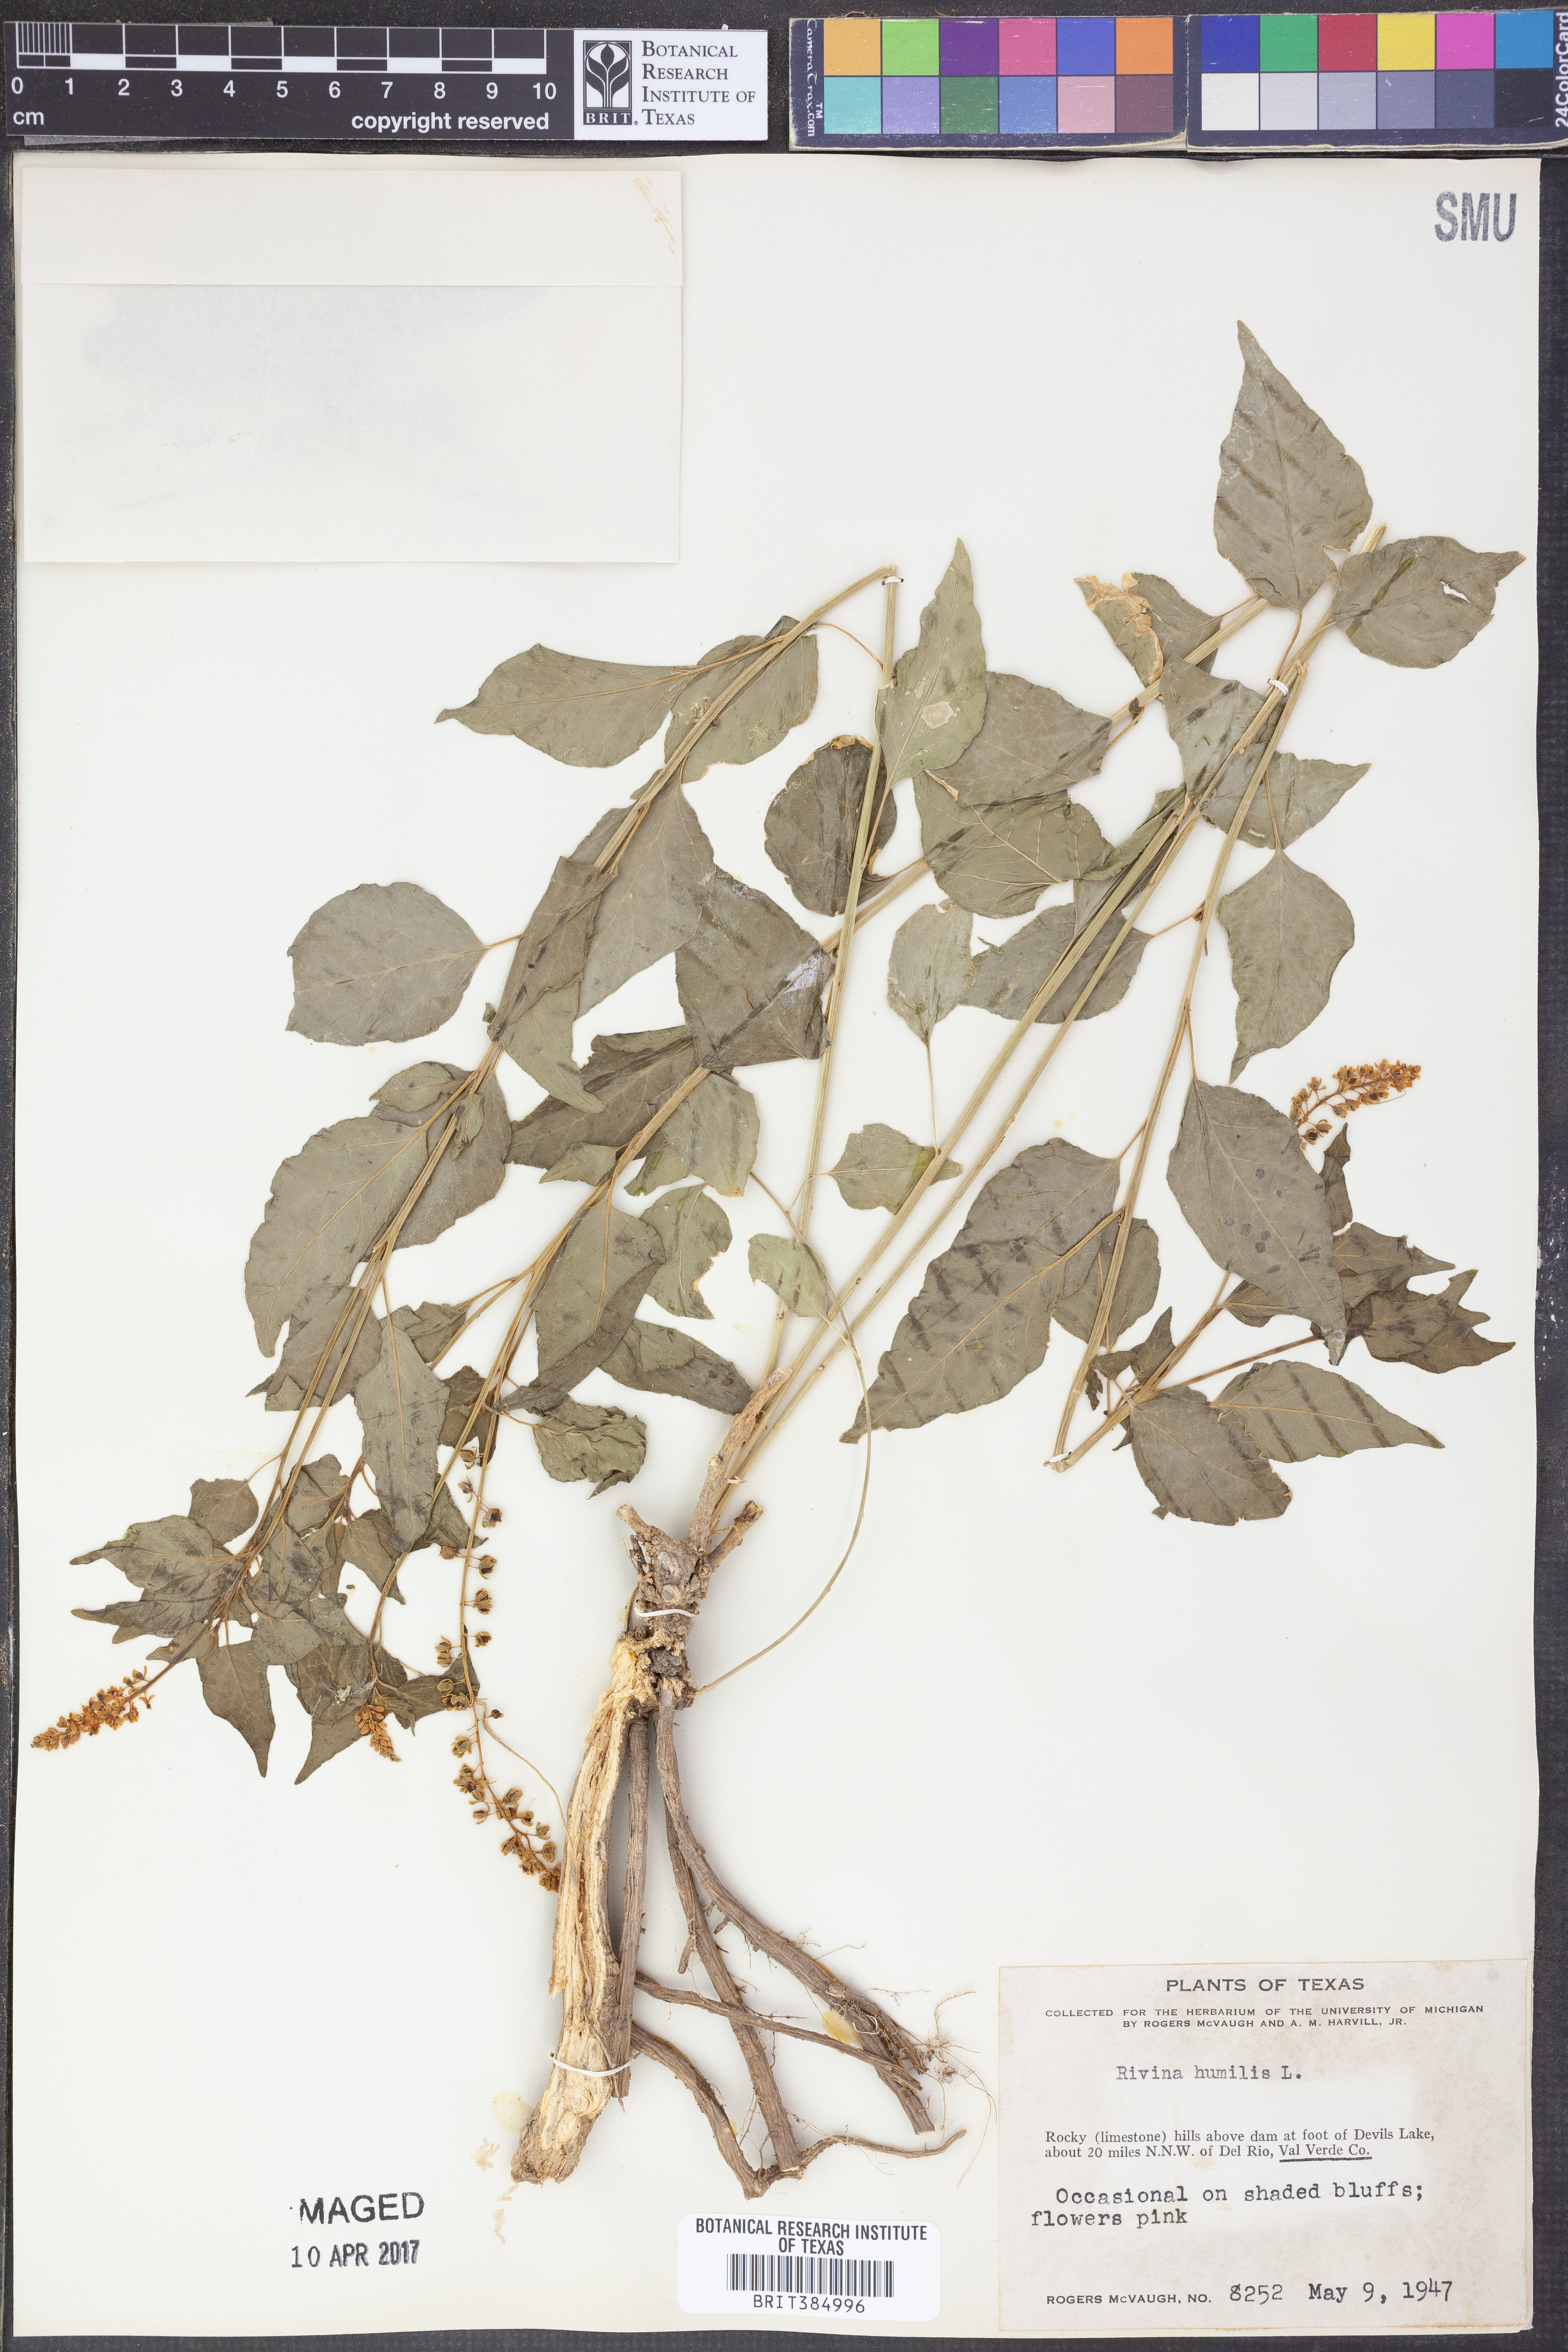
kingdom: Plantae
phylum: Tracheophyta
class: Magnoliopsida
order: Caryophyllales
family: Phytolaccaceae
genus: Rivina
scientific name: Rivina humilis
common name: Rougeplant
